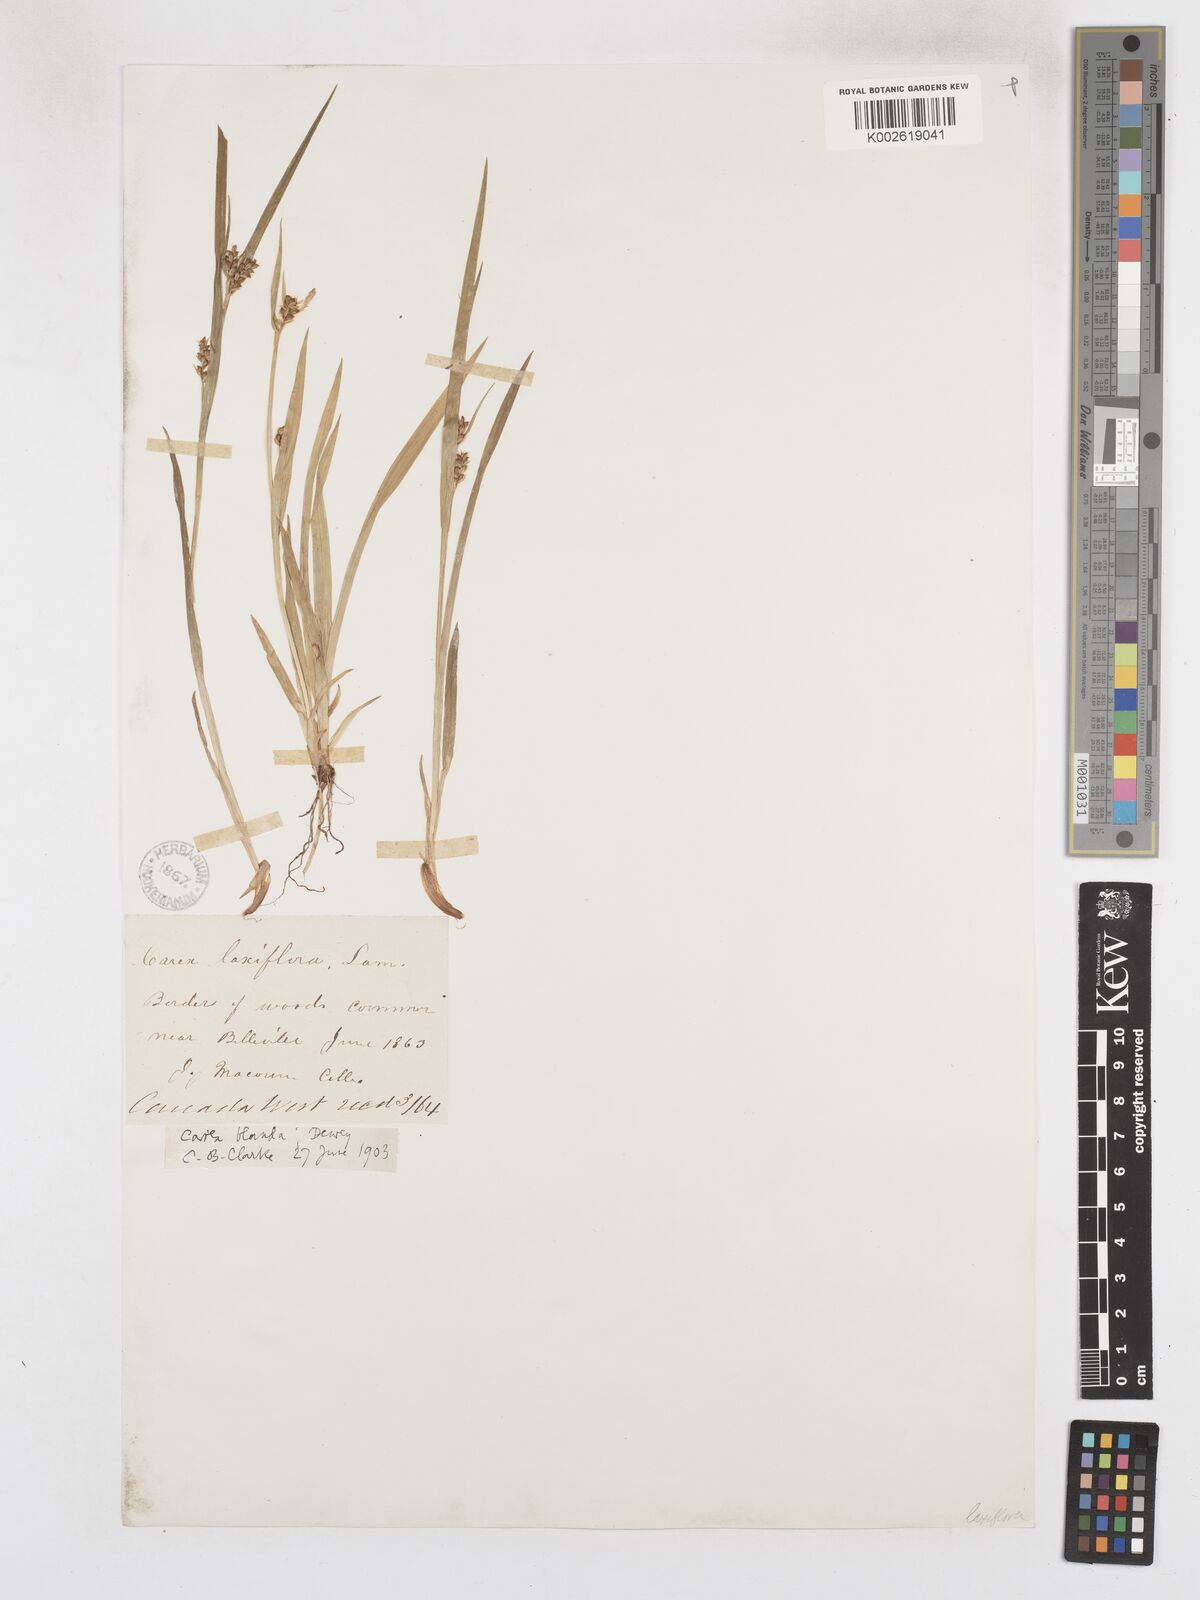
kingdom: Plantae
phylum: Tracheophyta
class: Liliopsida
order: Poales
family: Cyperaceae
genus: Carex
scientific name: Carex blanda
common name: Bland sedge
